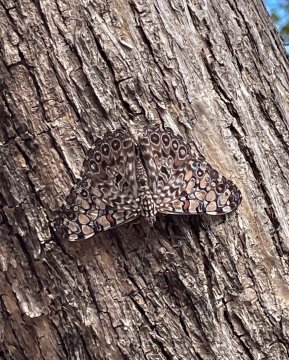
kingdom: Animalia
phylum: Arthropoda
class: Insecta
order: Lepidoptera
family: Nymphalidae
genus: Hamadryas
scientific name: Hamadryas feronia
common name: Variable Cracker
